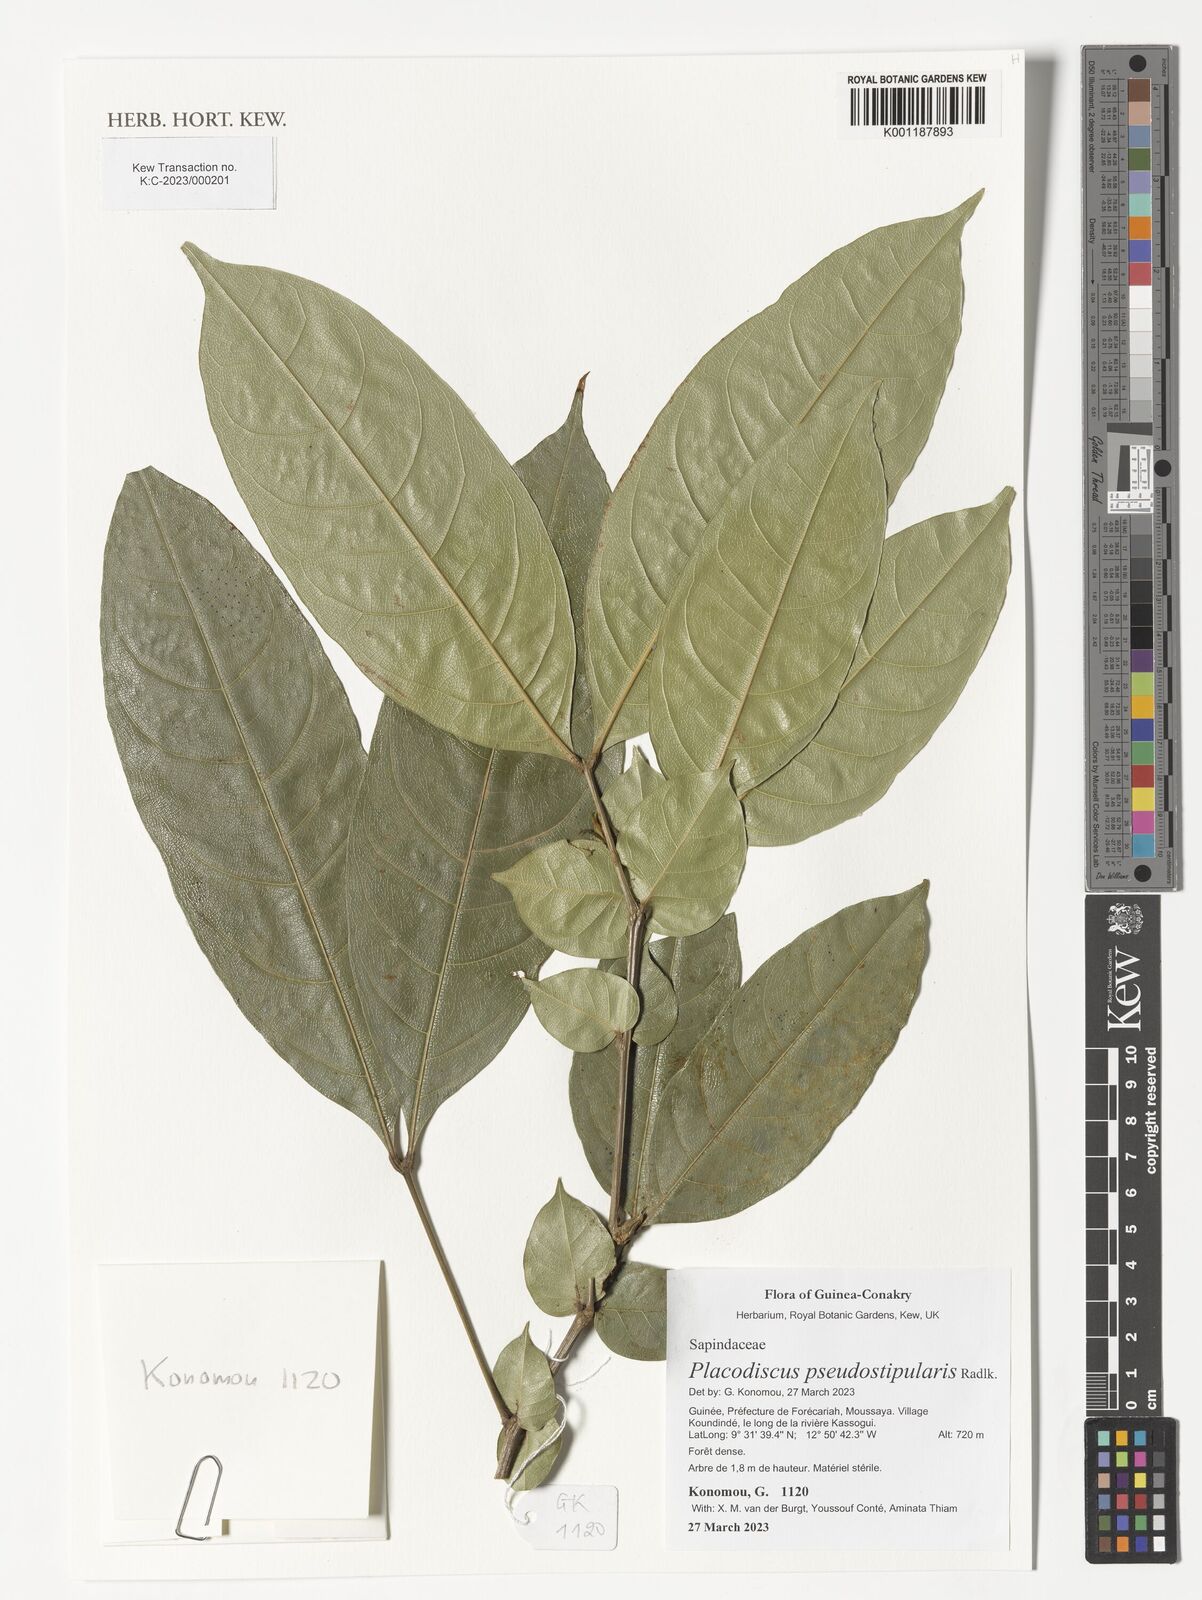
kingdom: Plantae
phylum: Tracheophyta
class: Magnoliopsida
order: Sapindales
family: Sapindaceae
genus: Placodiscus
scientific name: Placodiscus pseudostipularis
